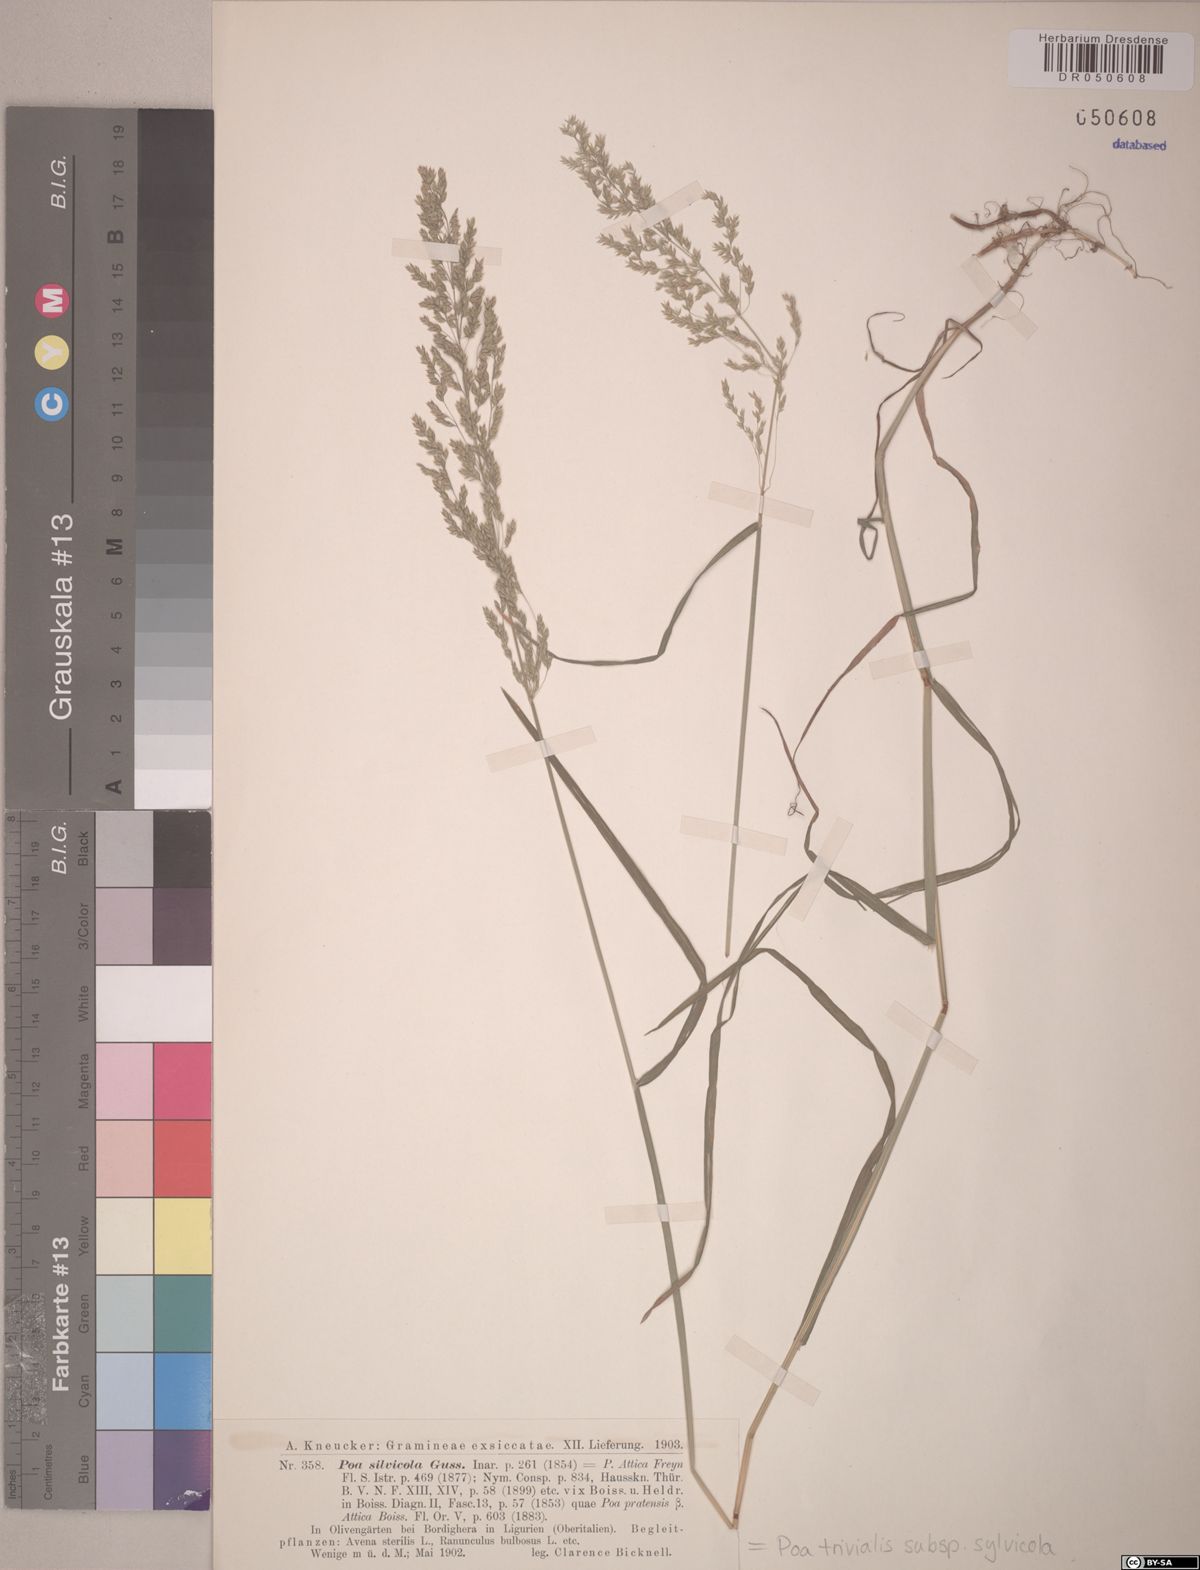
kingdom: Plantae
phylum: Tracheophyta
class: Liliopsida
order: Poales
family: Poaceae
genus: Poa
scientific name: Poa trivialis
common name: Rough bluegrass
